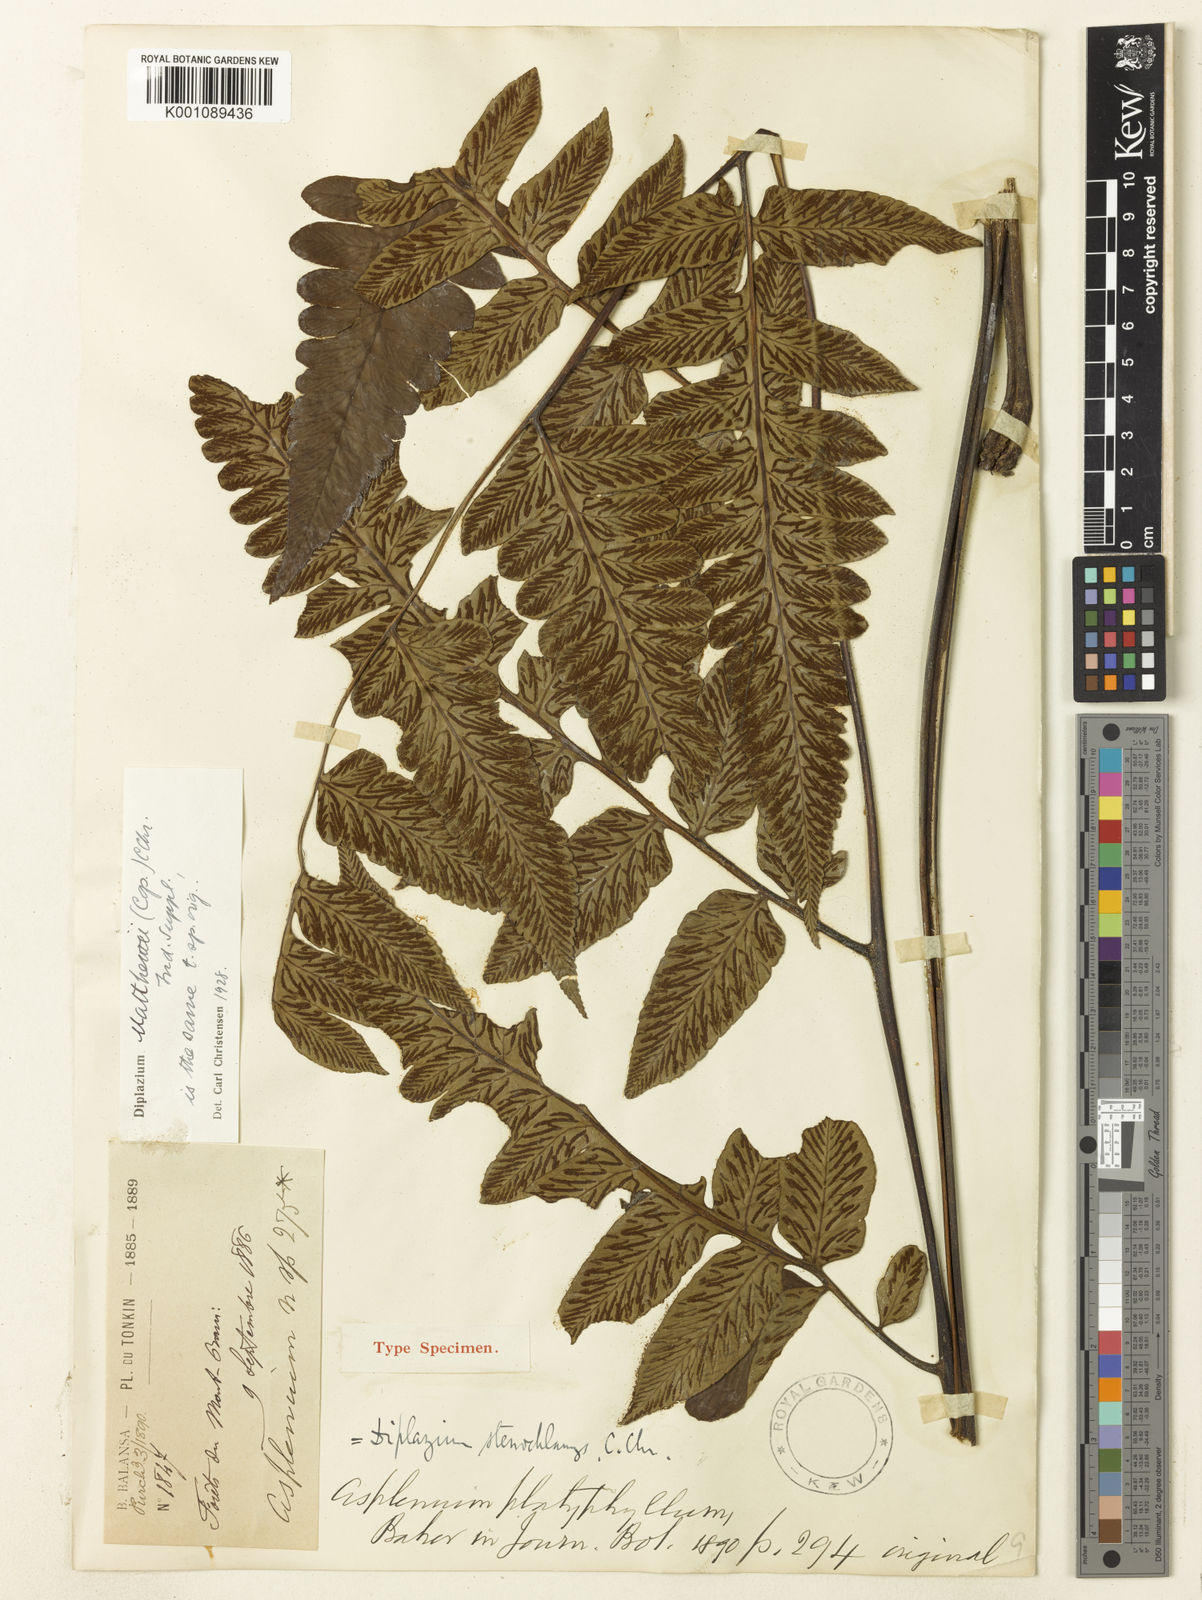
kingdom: Plantae
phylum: Tracheophyta
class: Polypodiopsida
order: Polypodiales
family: Athyriaceae
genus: Diplazium
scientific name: Diplazium stenochlamys
